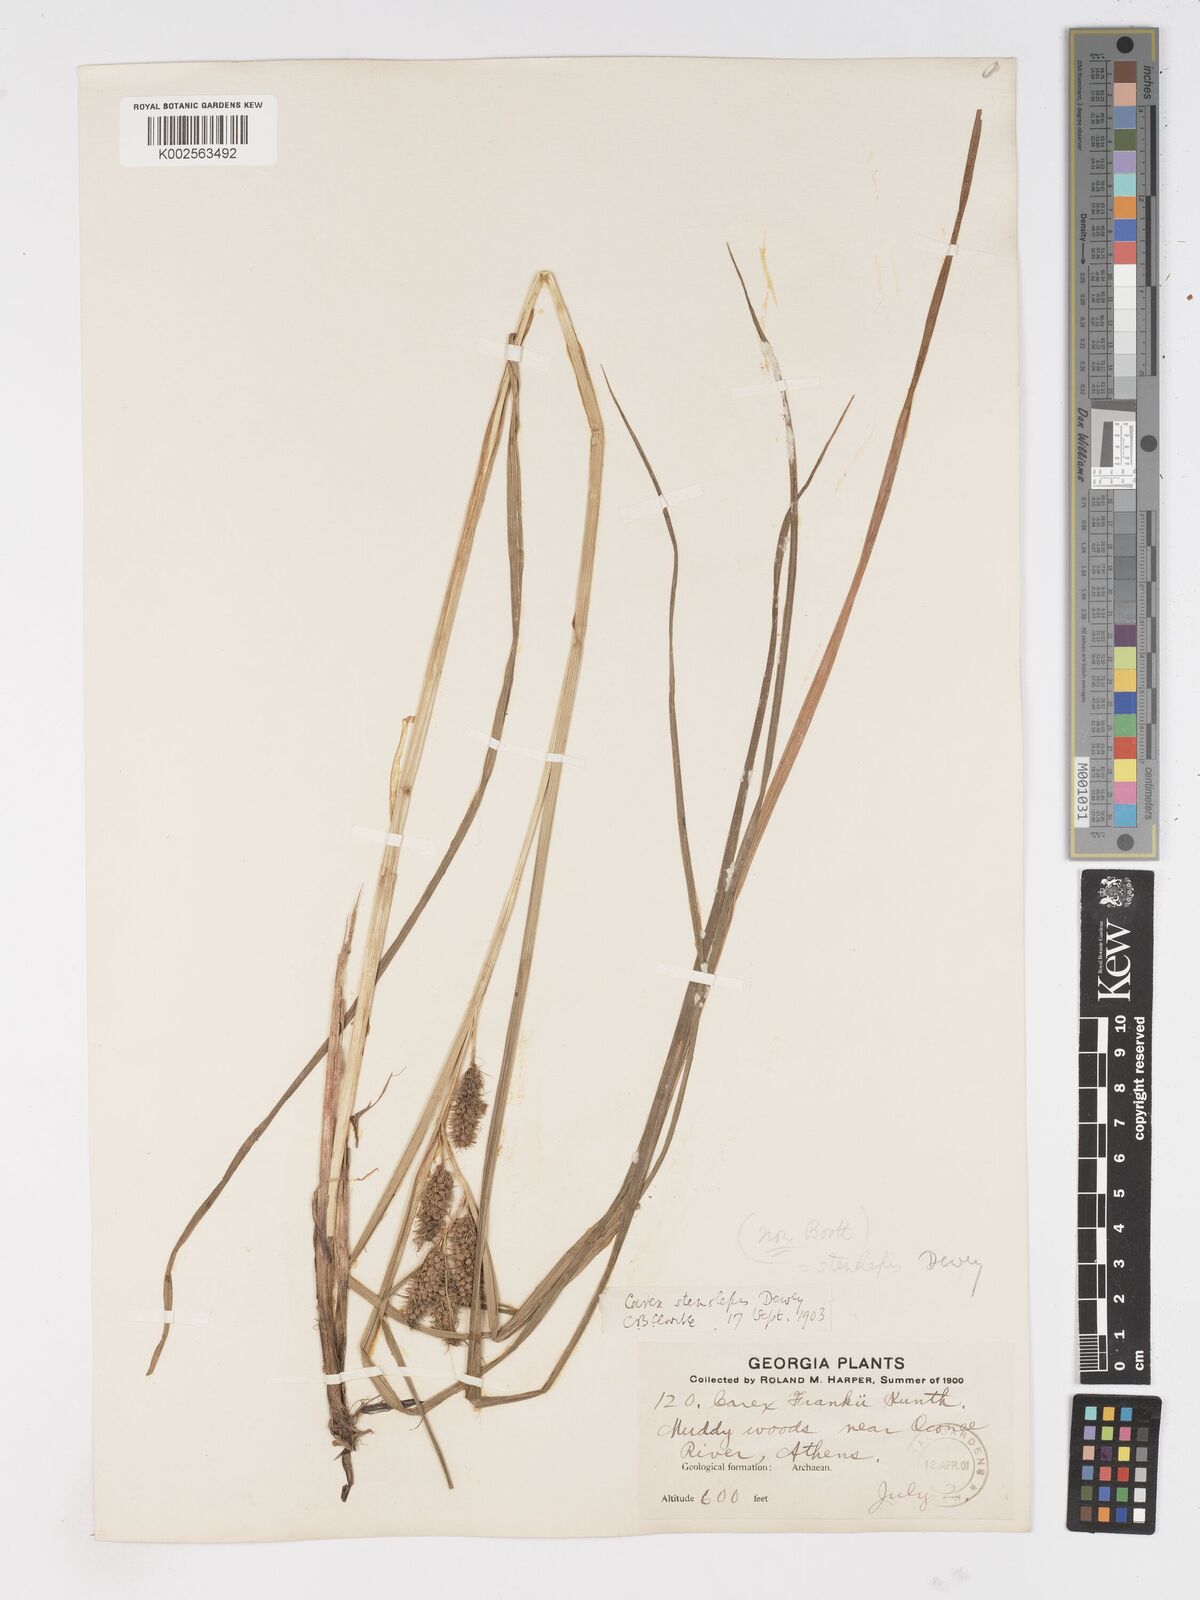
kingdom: Plantae
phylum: Tracheophyta
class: Liliopsida
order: Poales
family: Cyperaceae
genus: Carex
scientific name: Carex frankii
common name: Frank's sedge
